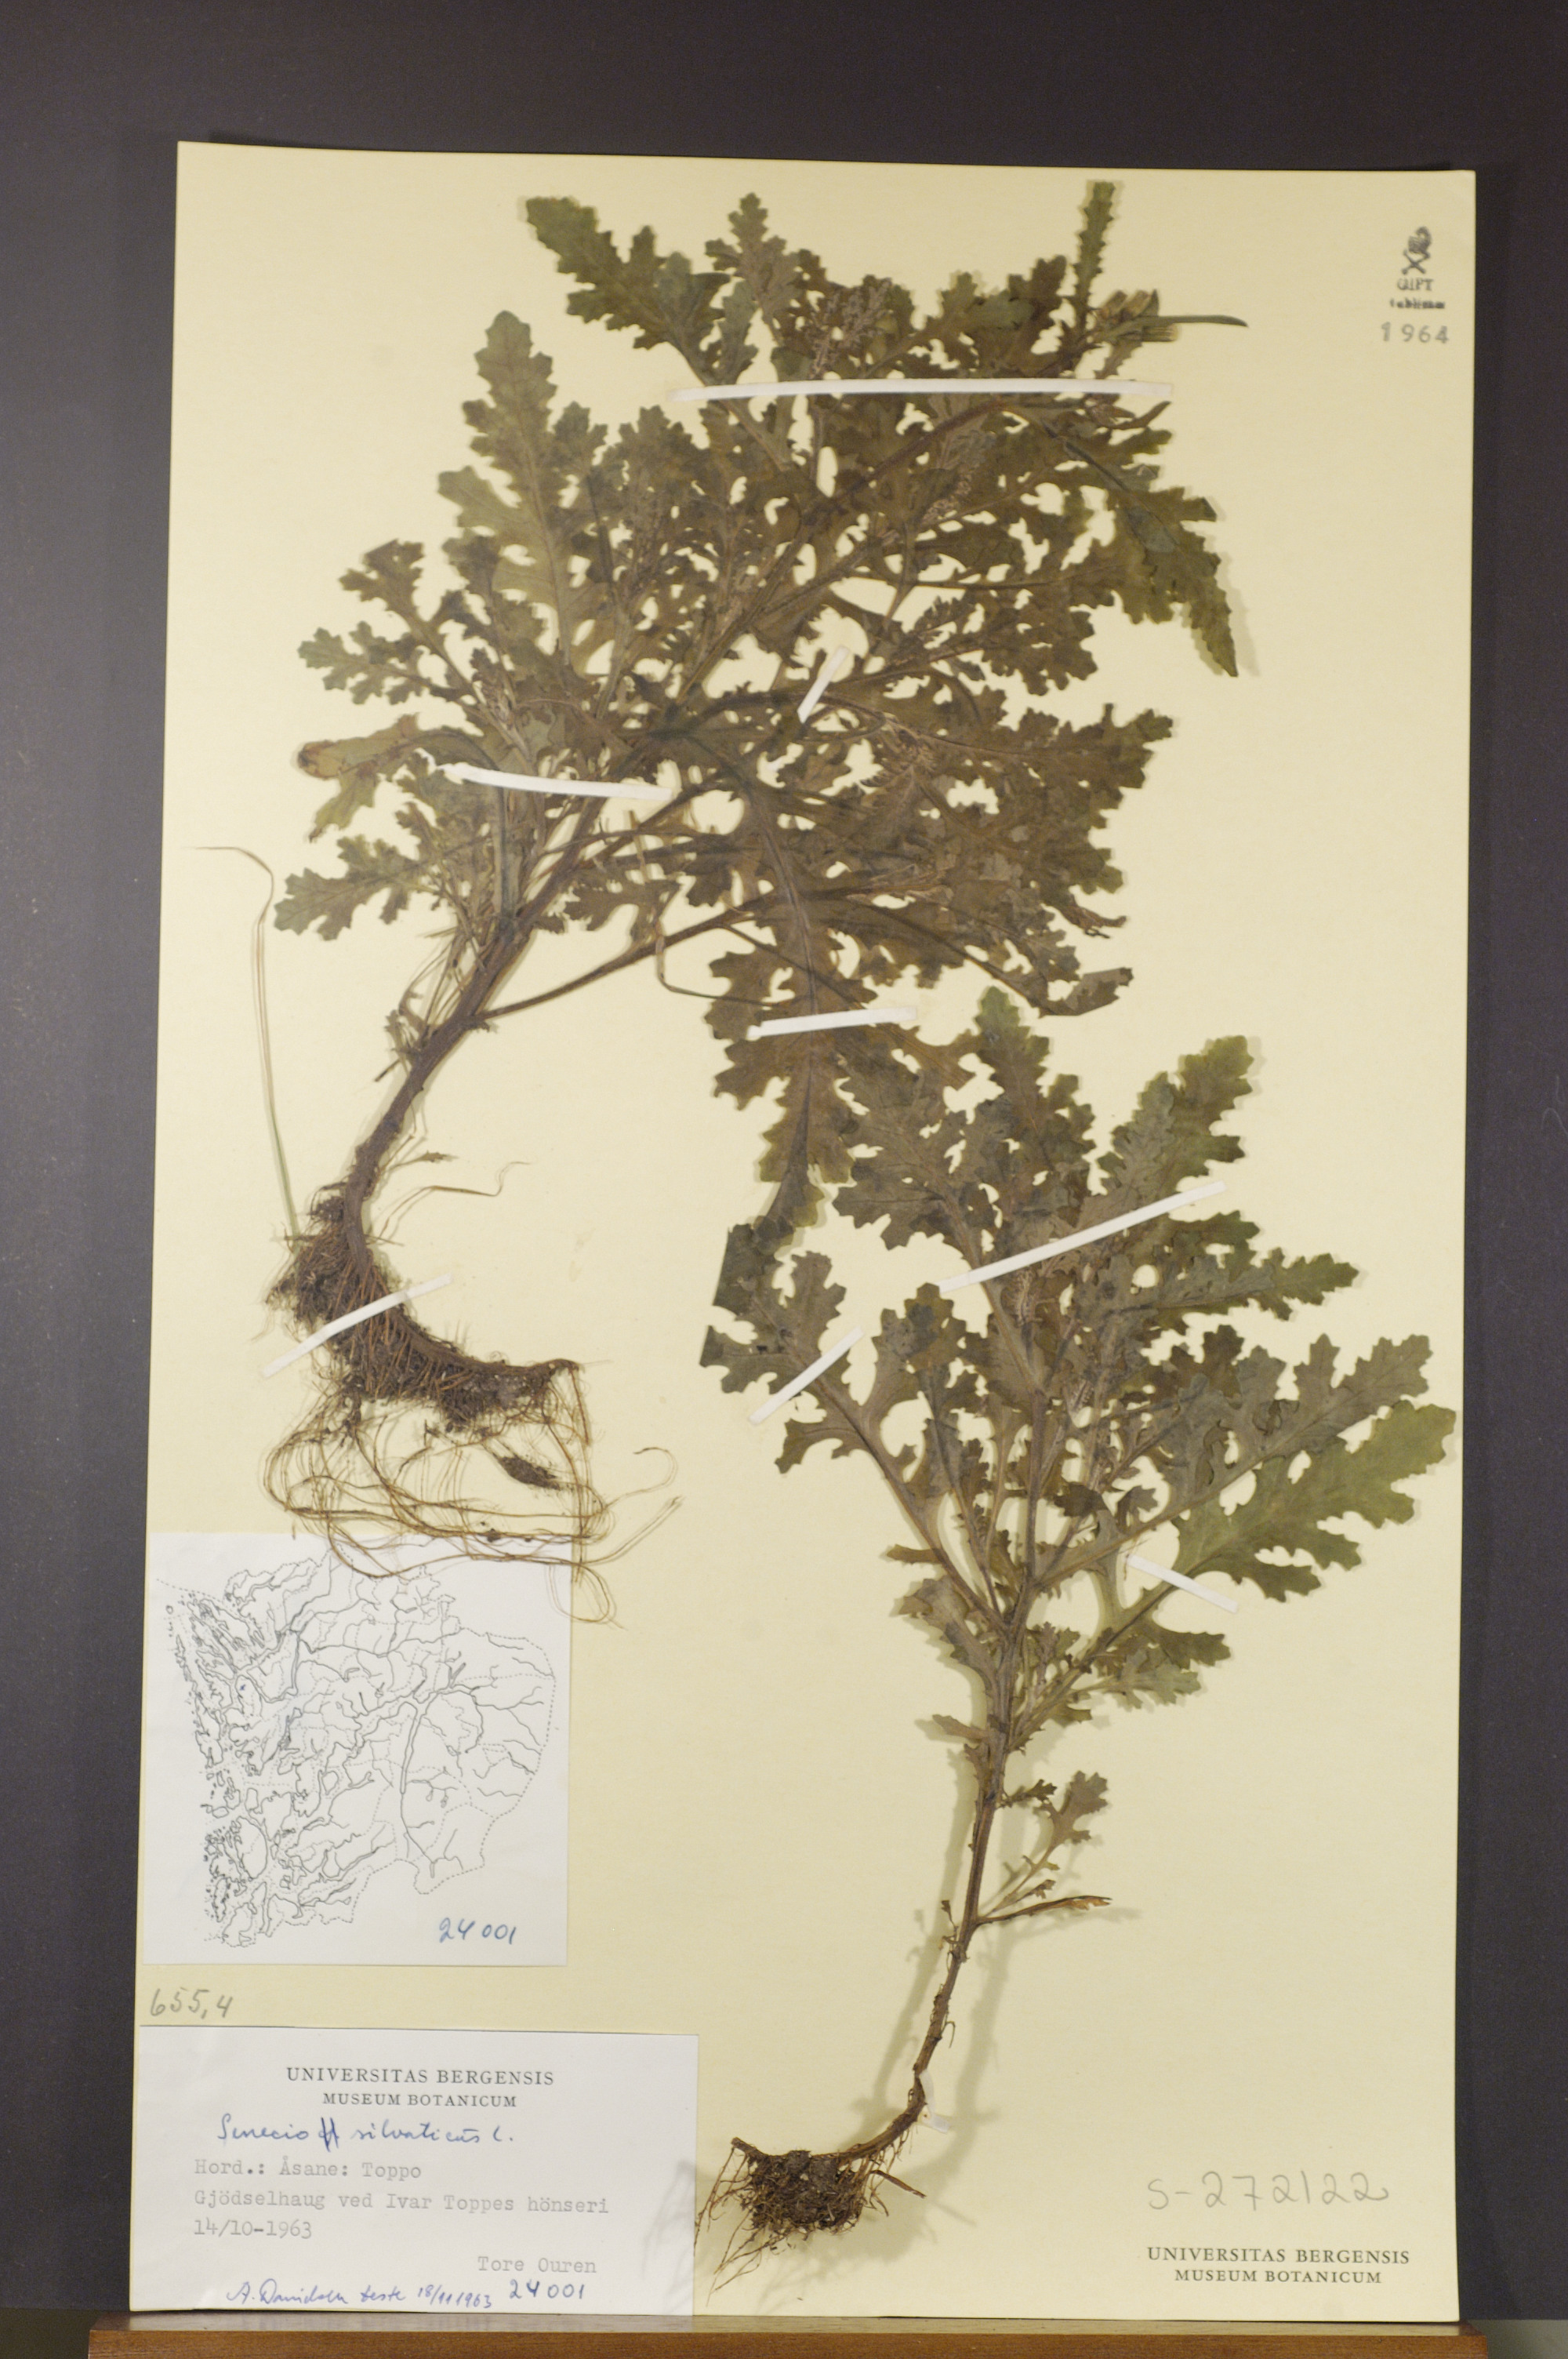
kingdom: Plantae
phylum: Tracheophyta
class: Magnoliopsida
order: Asterales
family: Asteraceae
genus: Senecio
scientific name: Senecio sylvaticus
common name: Woodland ragwort
